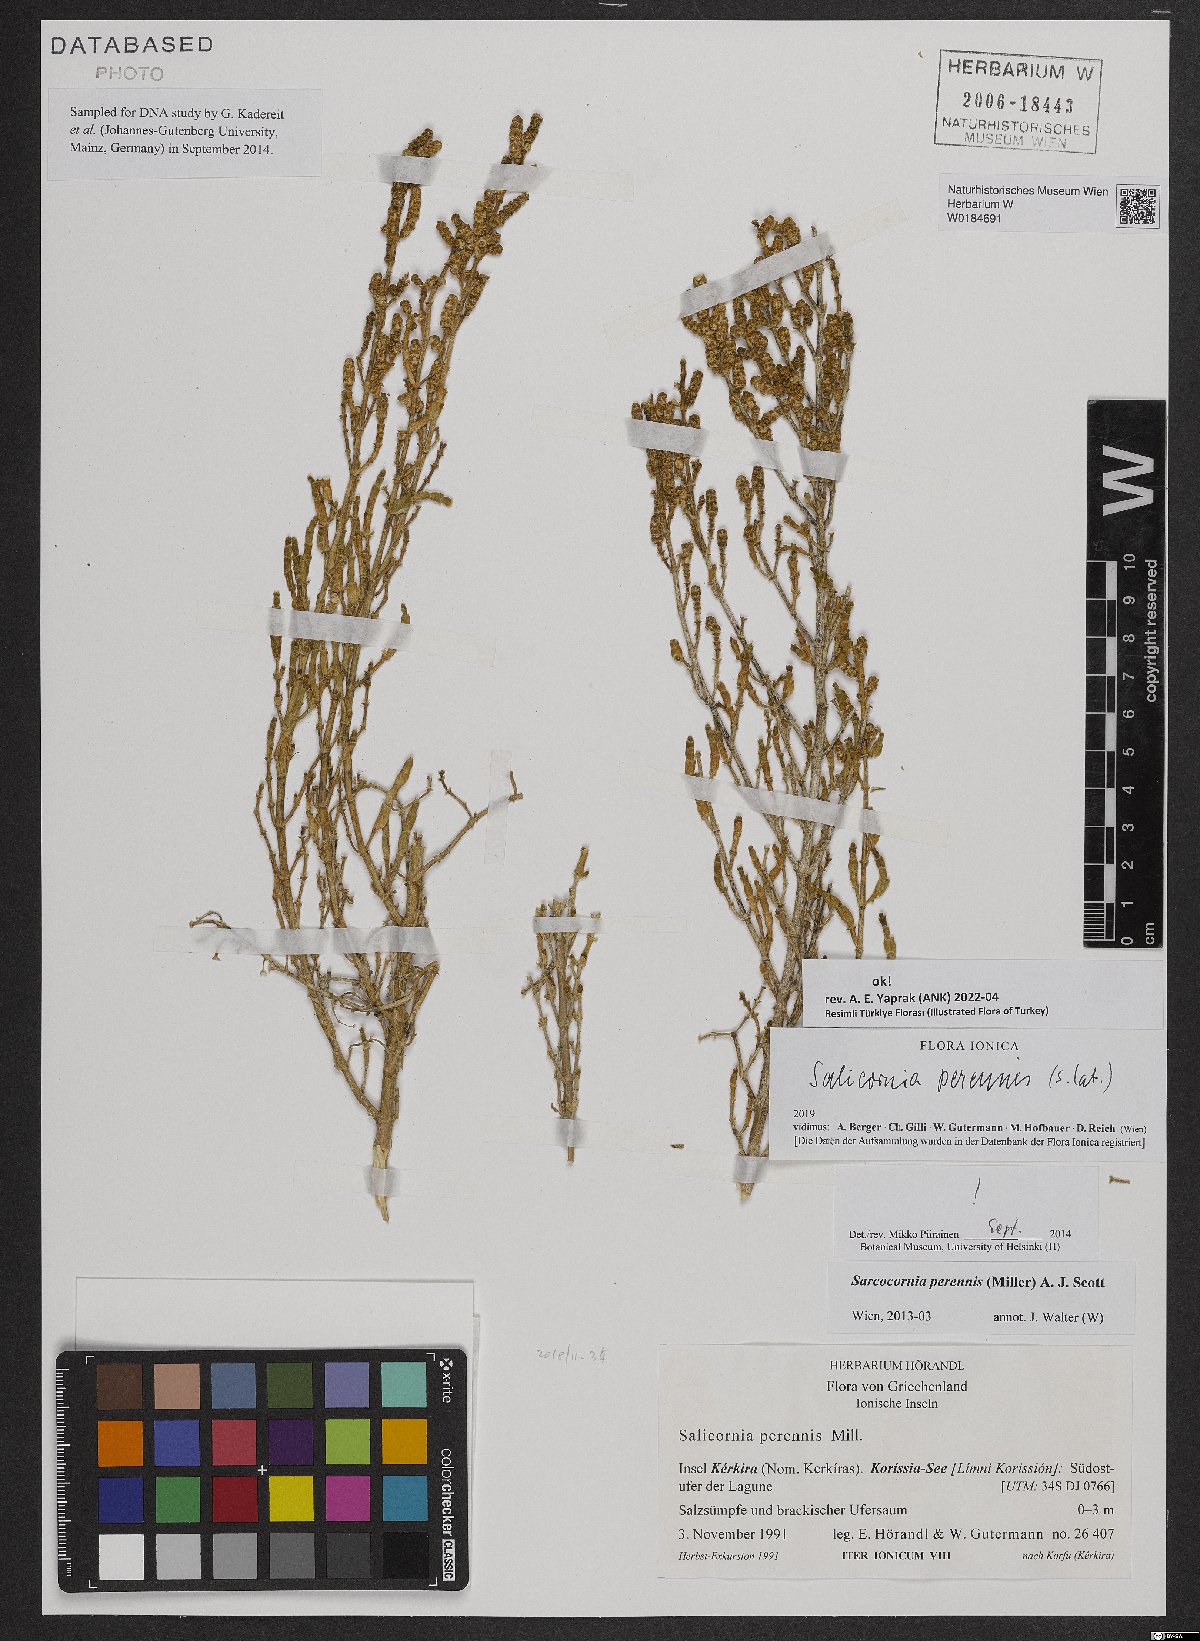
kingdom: Plantae
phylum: Tracheophyta
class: Magnoliopsida
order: Caryophyllales
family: Amaranthaceae
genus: Salicornia
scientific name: Salicornia perennis
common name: Chicken claws
